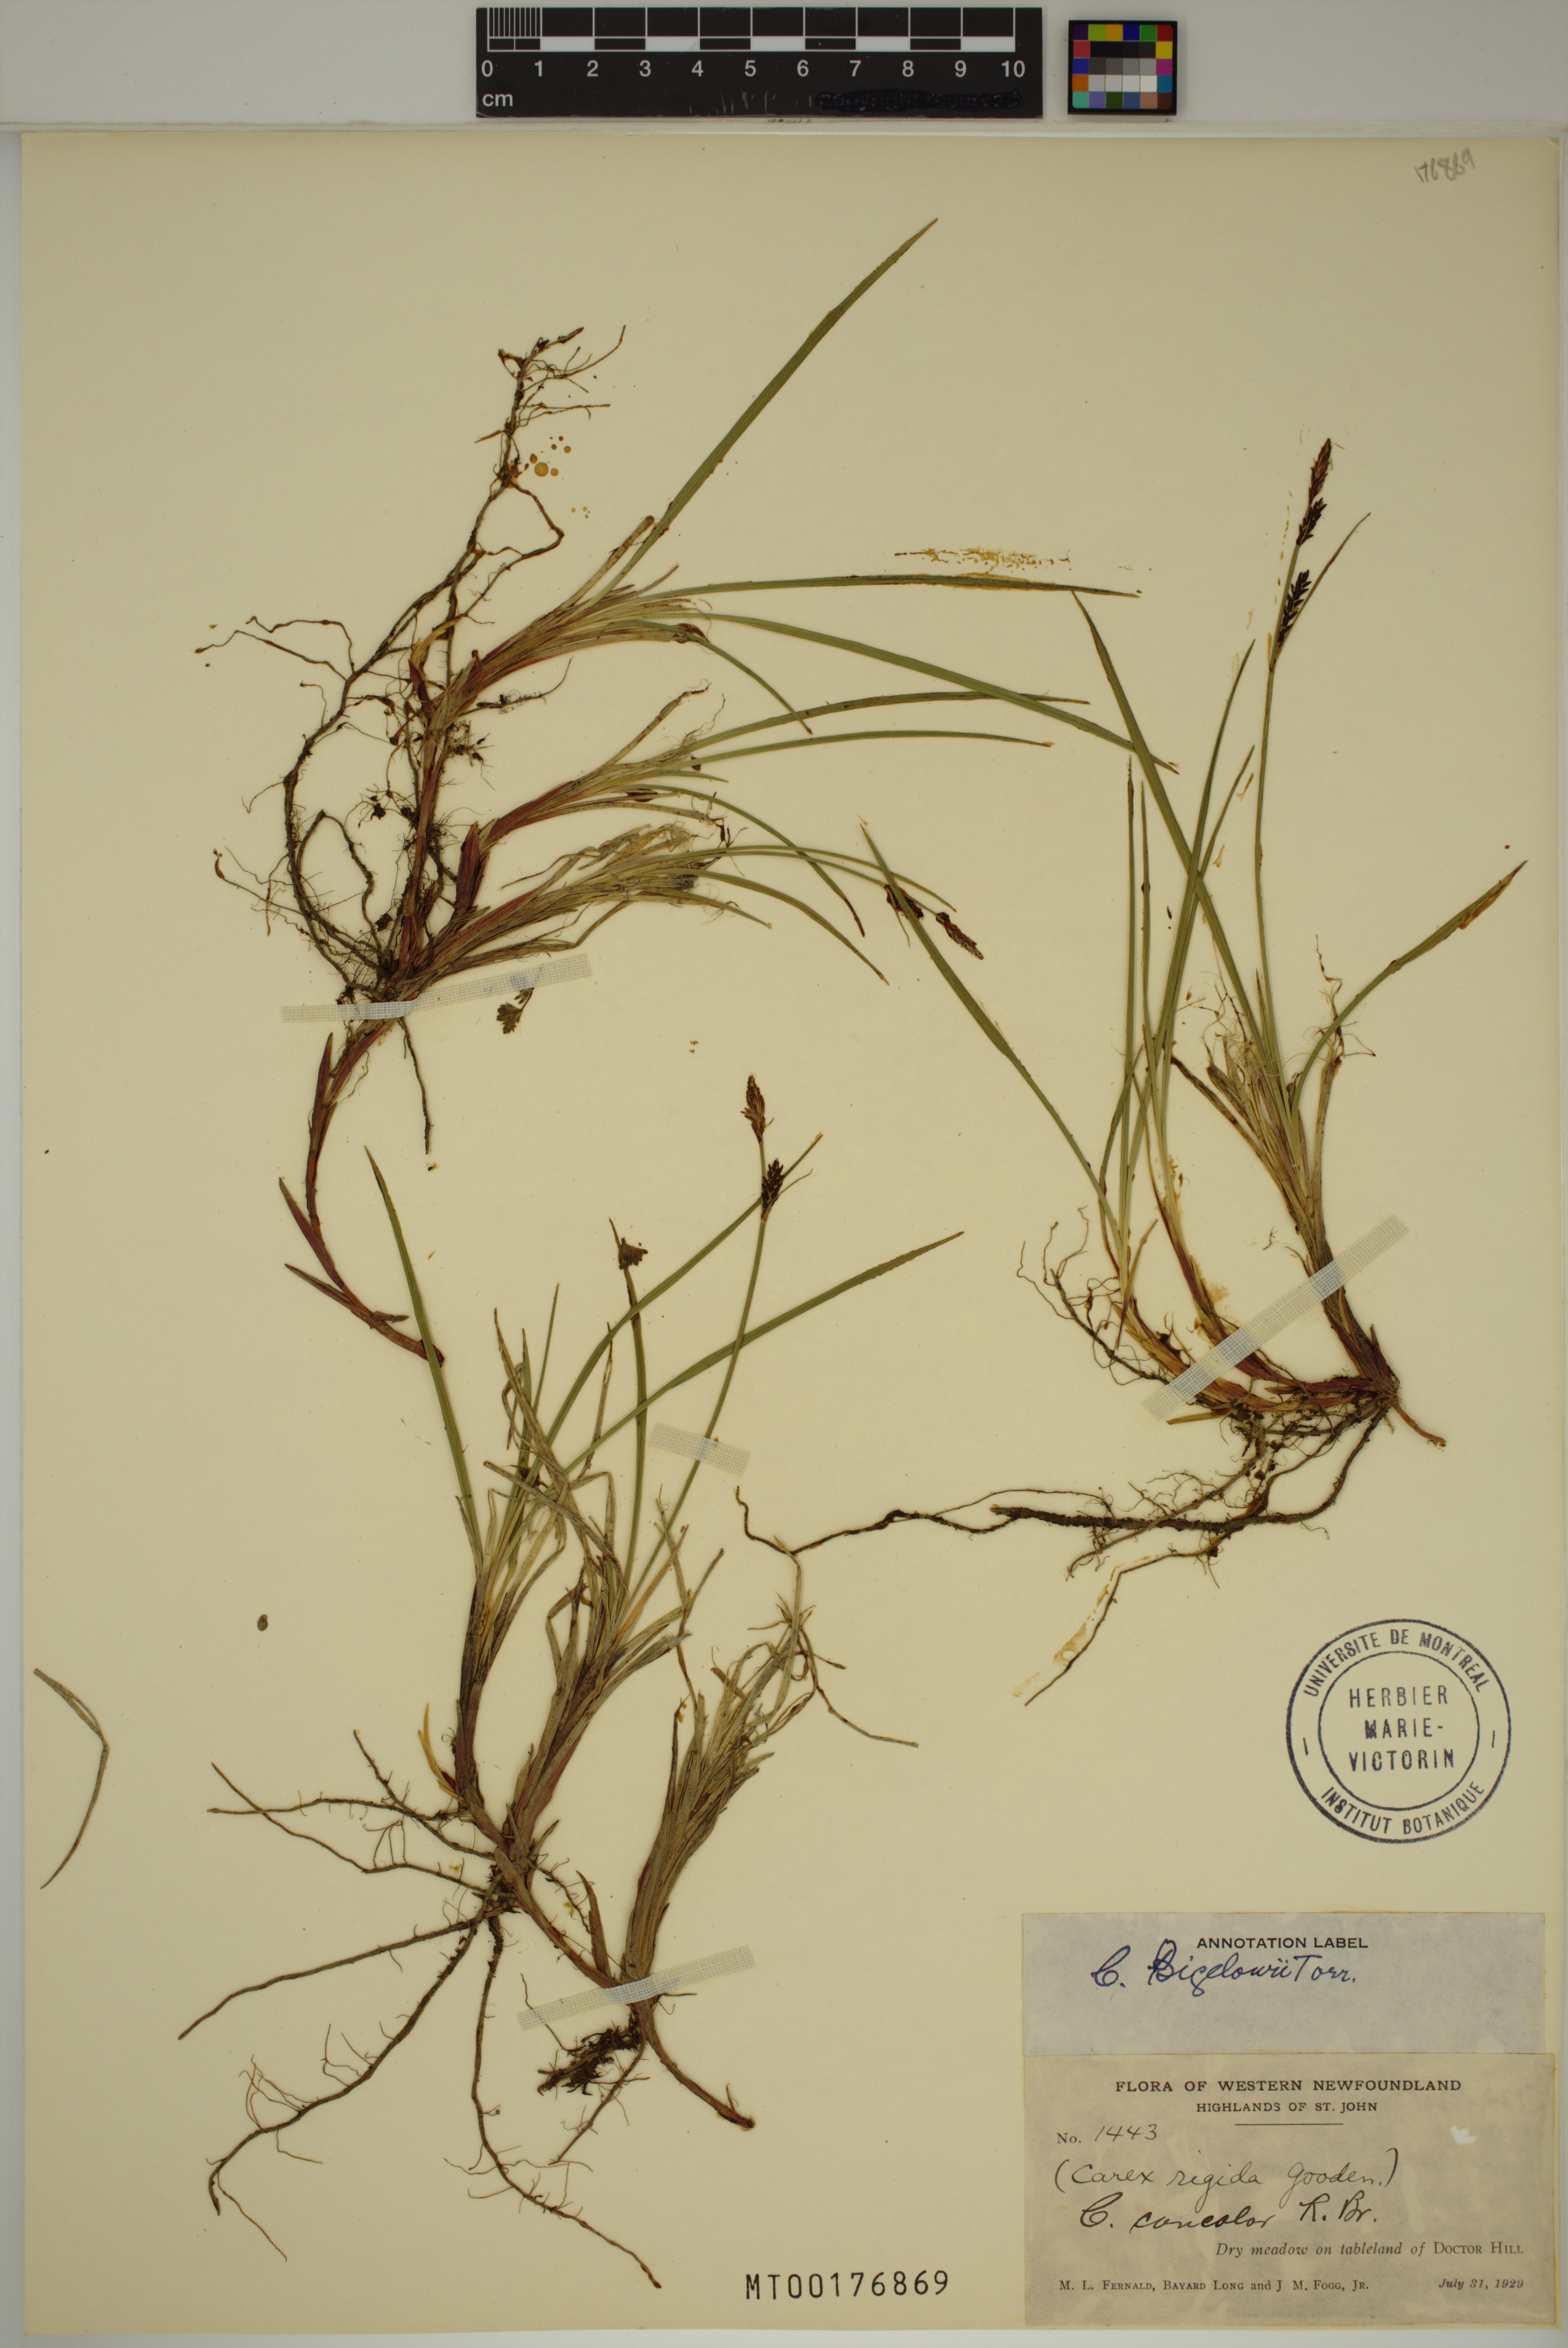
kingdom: Plantae
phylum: Tracheophyta
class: Liliopsida
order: Poales
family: Cyperaceae
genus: Carex
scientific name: Carex bigelowii
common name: Stiff sedge
